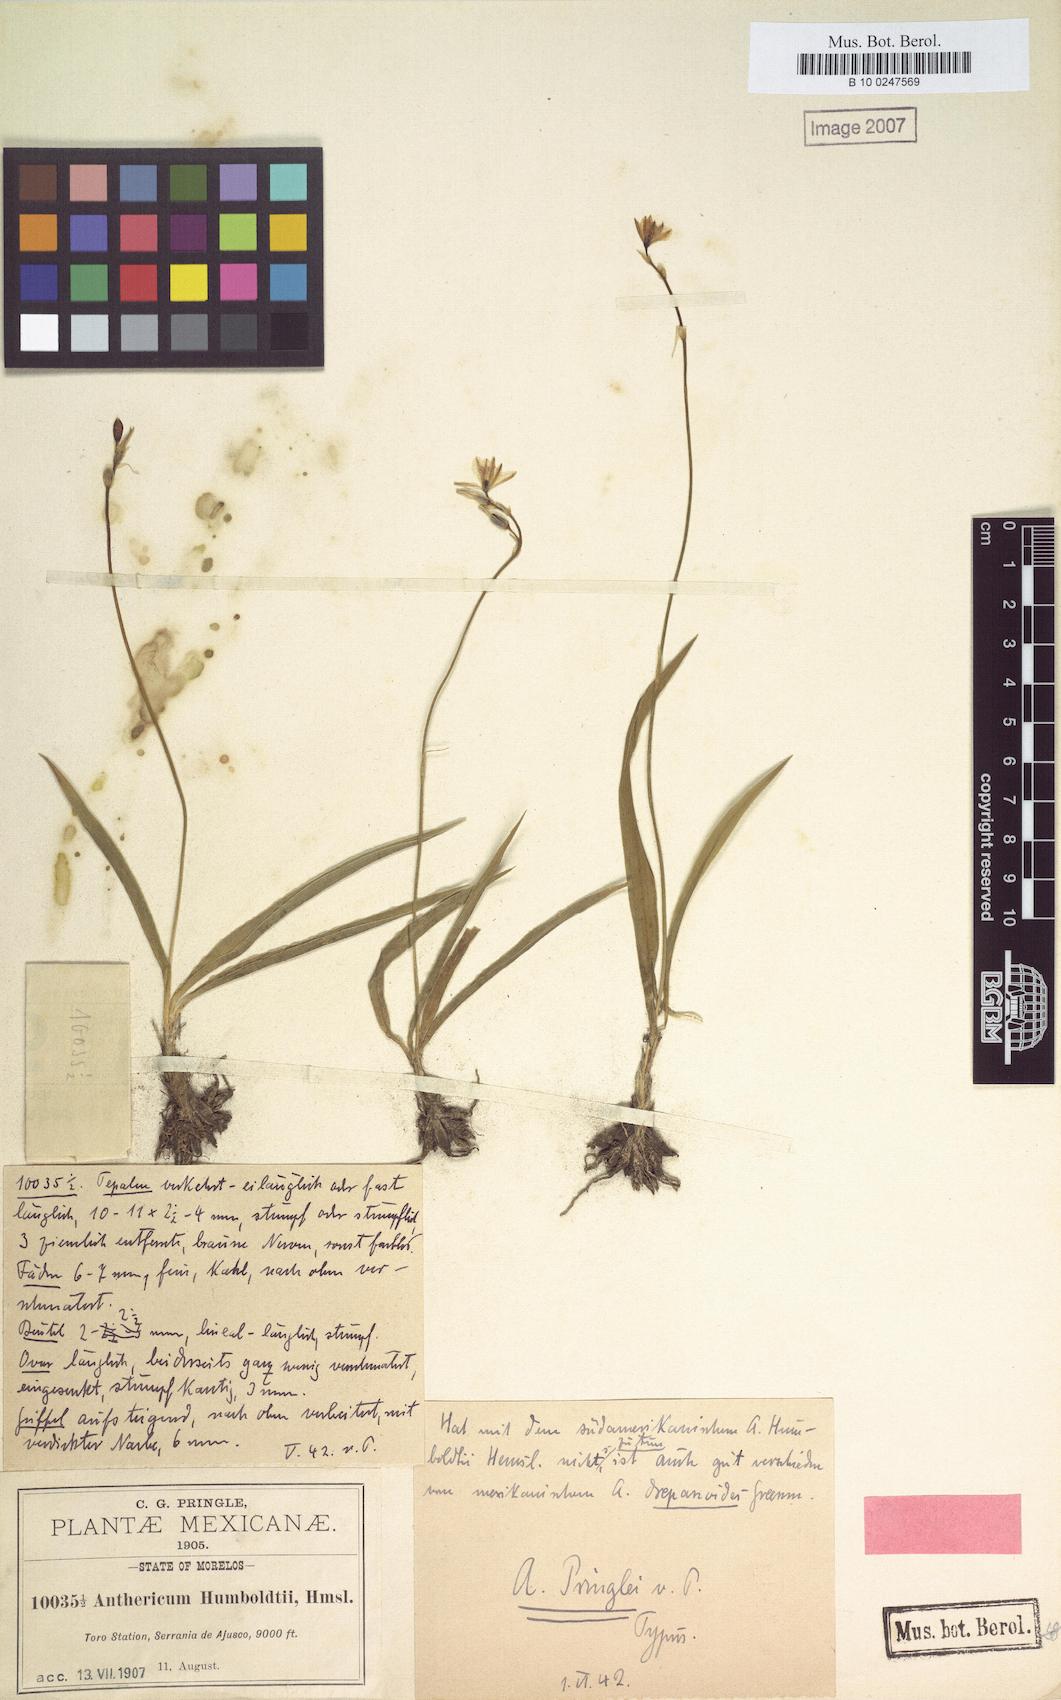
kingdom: Plantae
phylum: Tracheophyta
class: Liliopsida
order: Asparagales
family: Asparagaceae
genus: Echeandia
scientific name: Echeandia flavescens
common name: Amberlily
